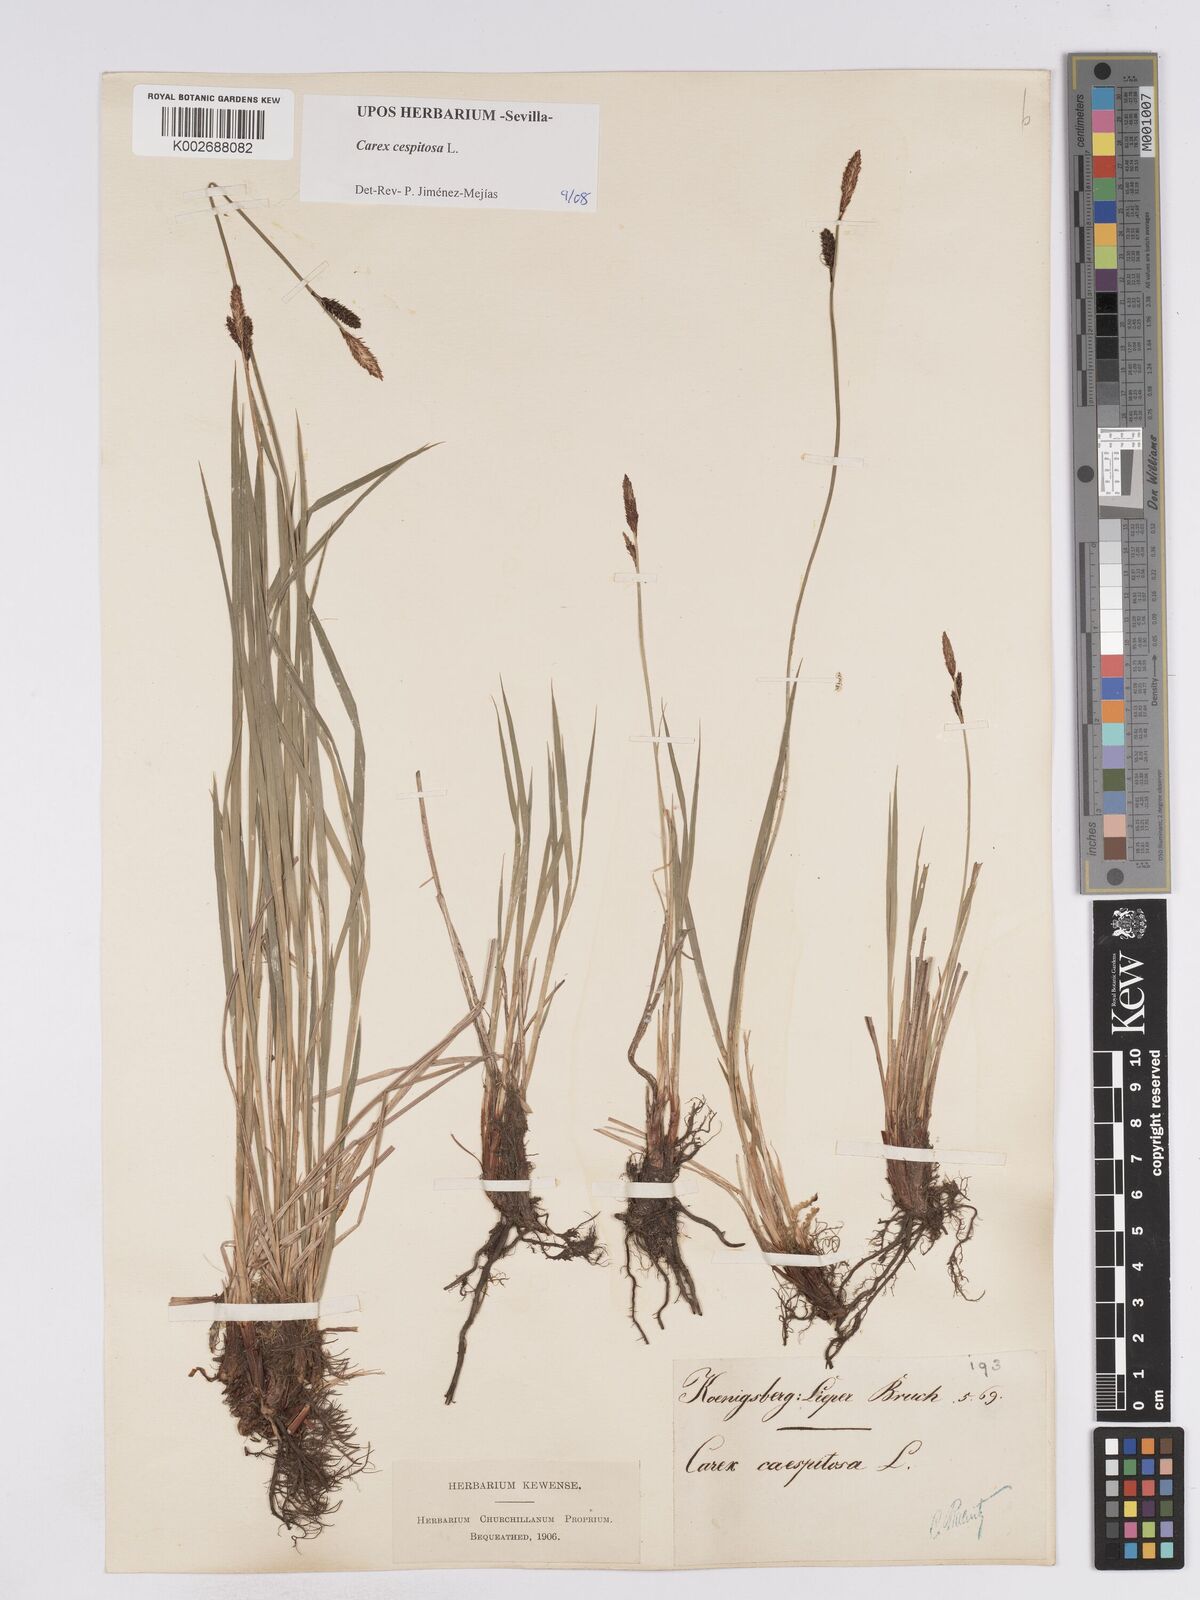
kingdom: Plantae
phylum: Tracheophyta
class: Liliopsida
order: Poales
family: Cyperaceae
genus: Carex
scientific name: Carex
